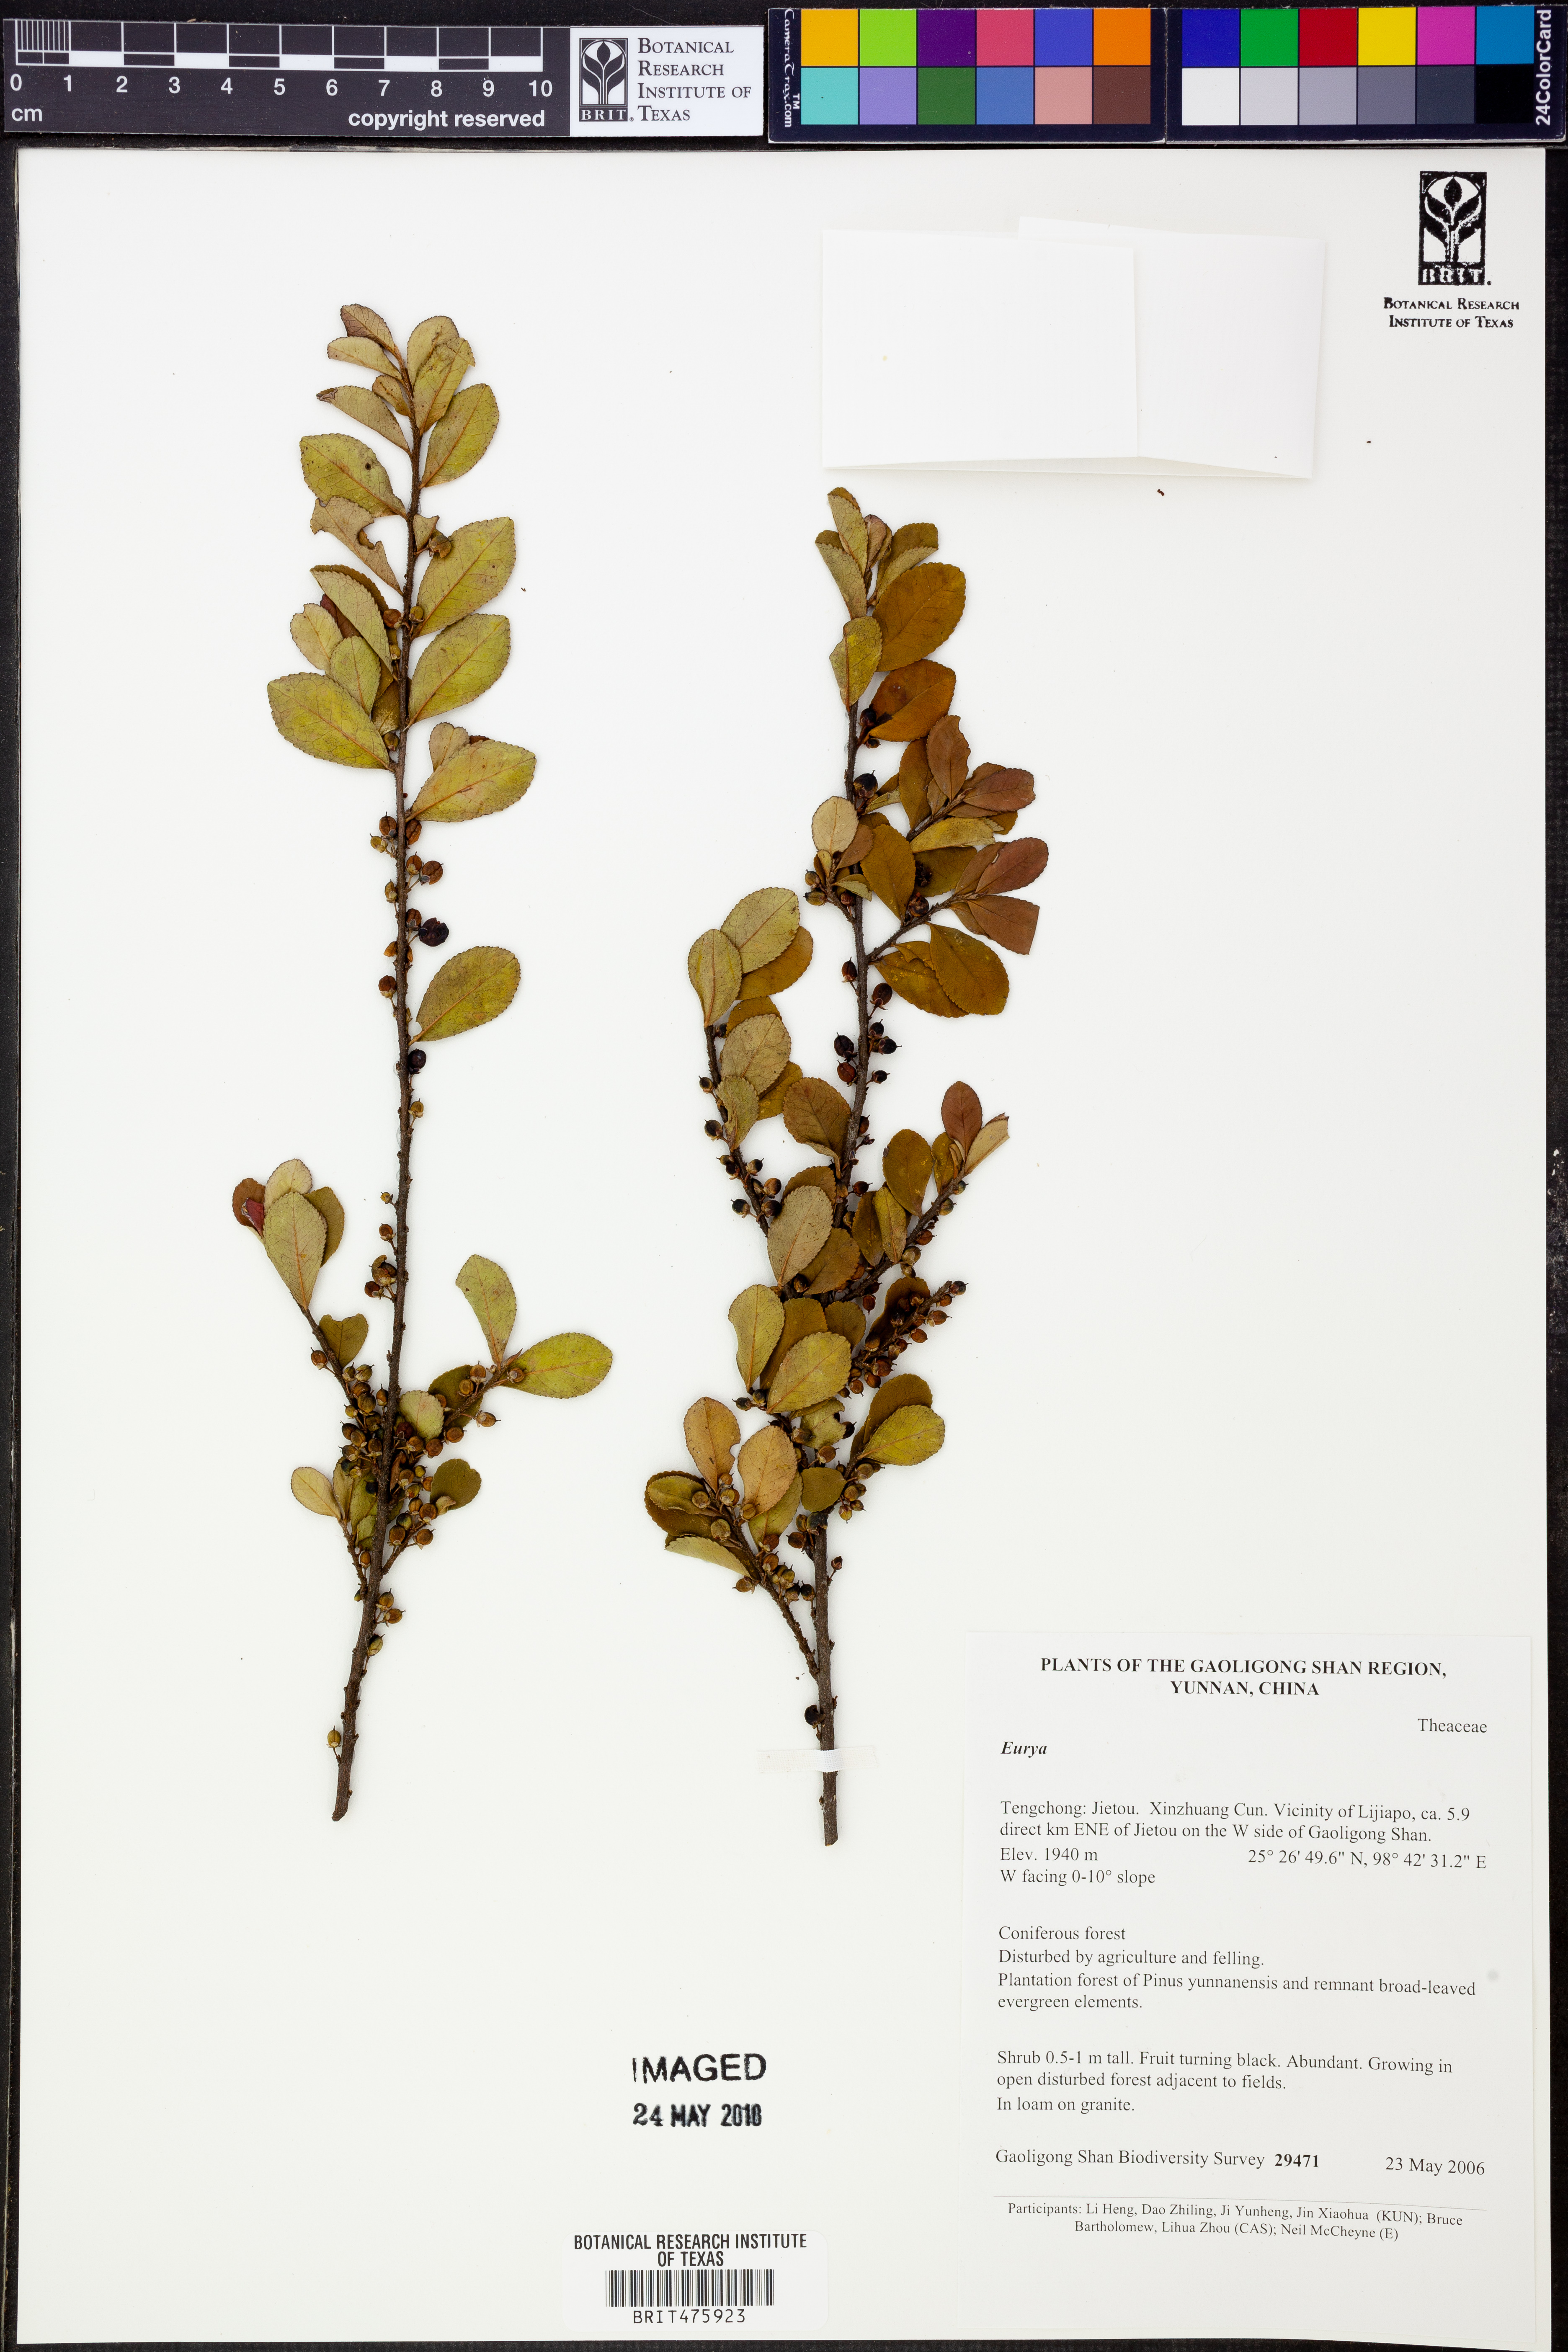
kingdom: Plantae
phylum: Tracheophyta
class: Magnoliopsida
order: Ericales
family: Pentaphylacaceae
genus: Eurya
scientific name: Eurya
